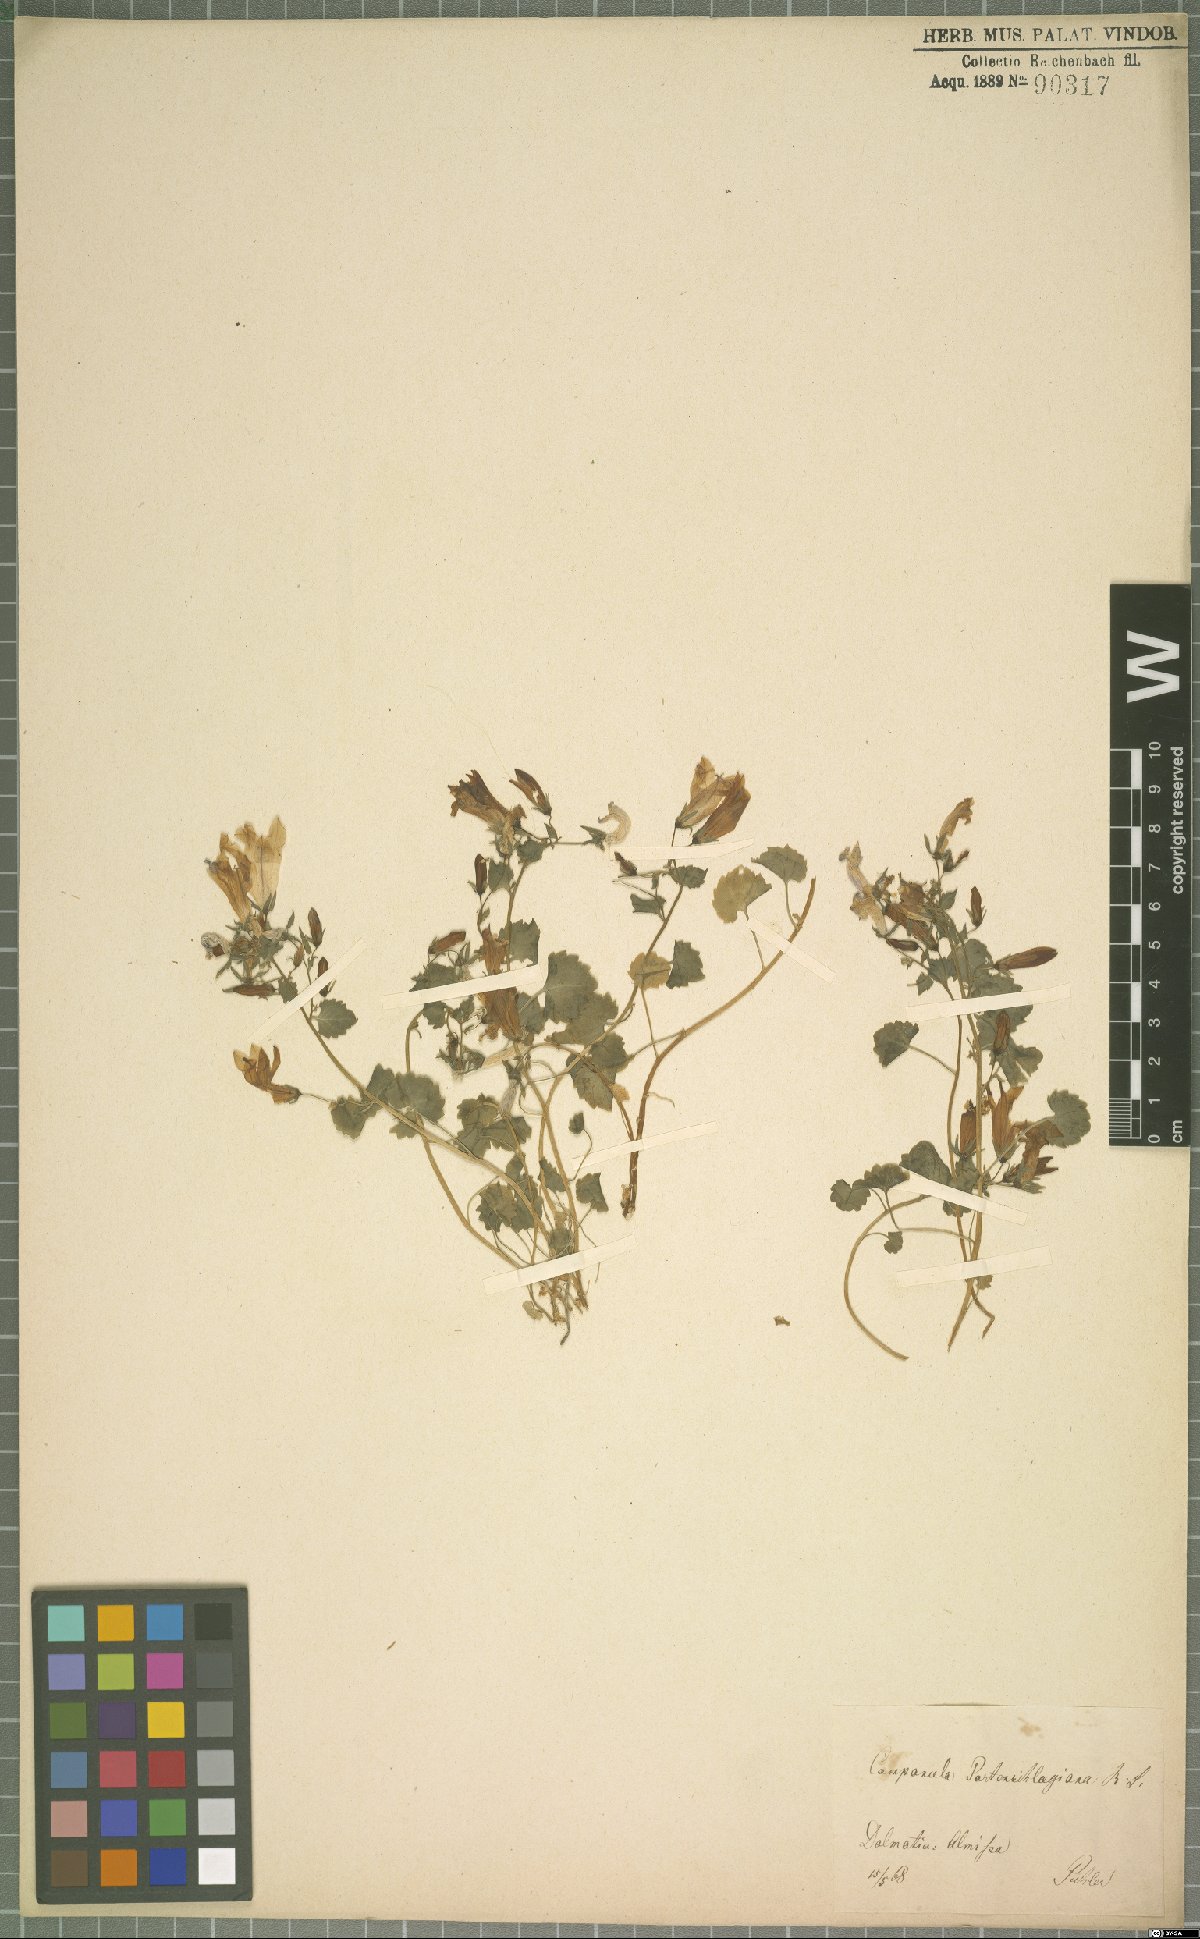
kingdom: Plantae
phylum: Tracheophyta
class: Magnoliopsida
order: Asterales
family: Campanulaceae
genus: Campanula
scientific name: Campanula portenschlagiana
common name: Adria bellflower
